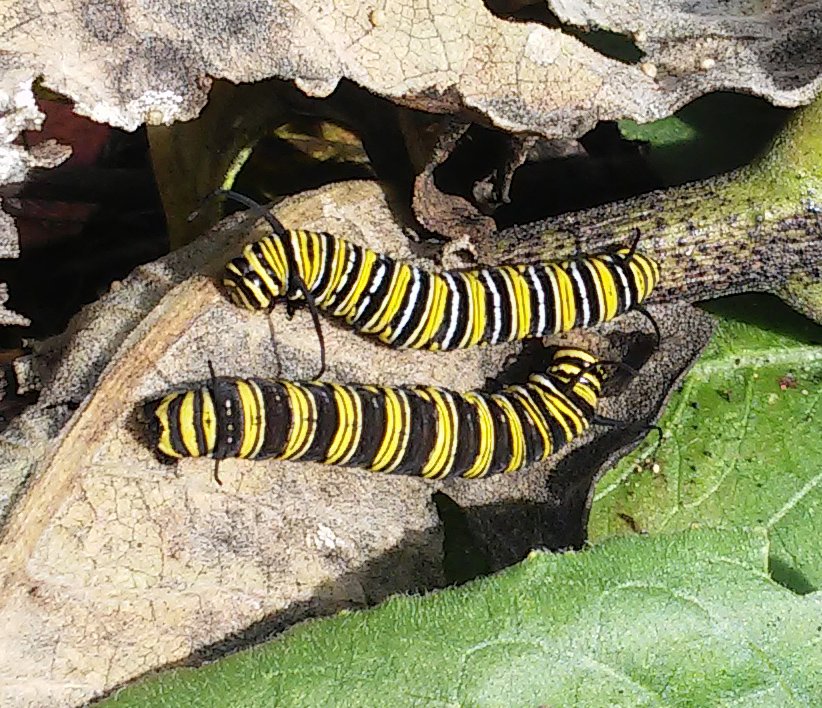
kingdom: Animalia
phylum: Arthropoda
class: Insecta
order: Lepidoptera
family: Nymphalidae
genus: Danaus
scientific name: Danaus plexippus
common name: Monarch
